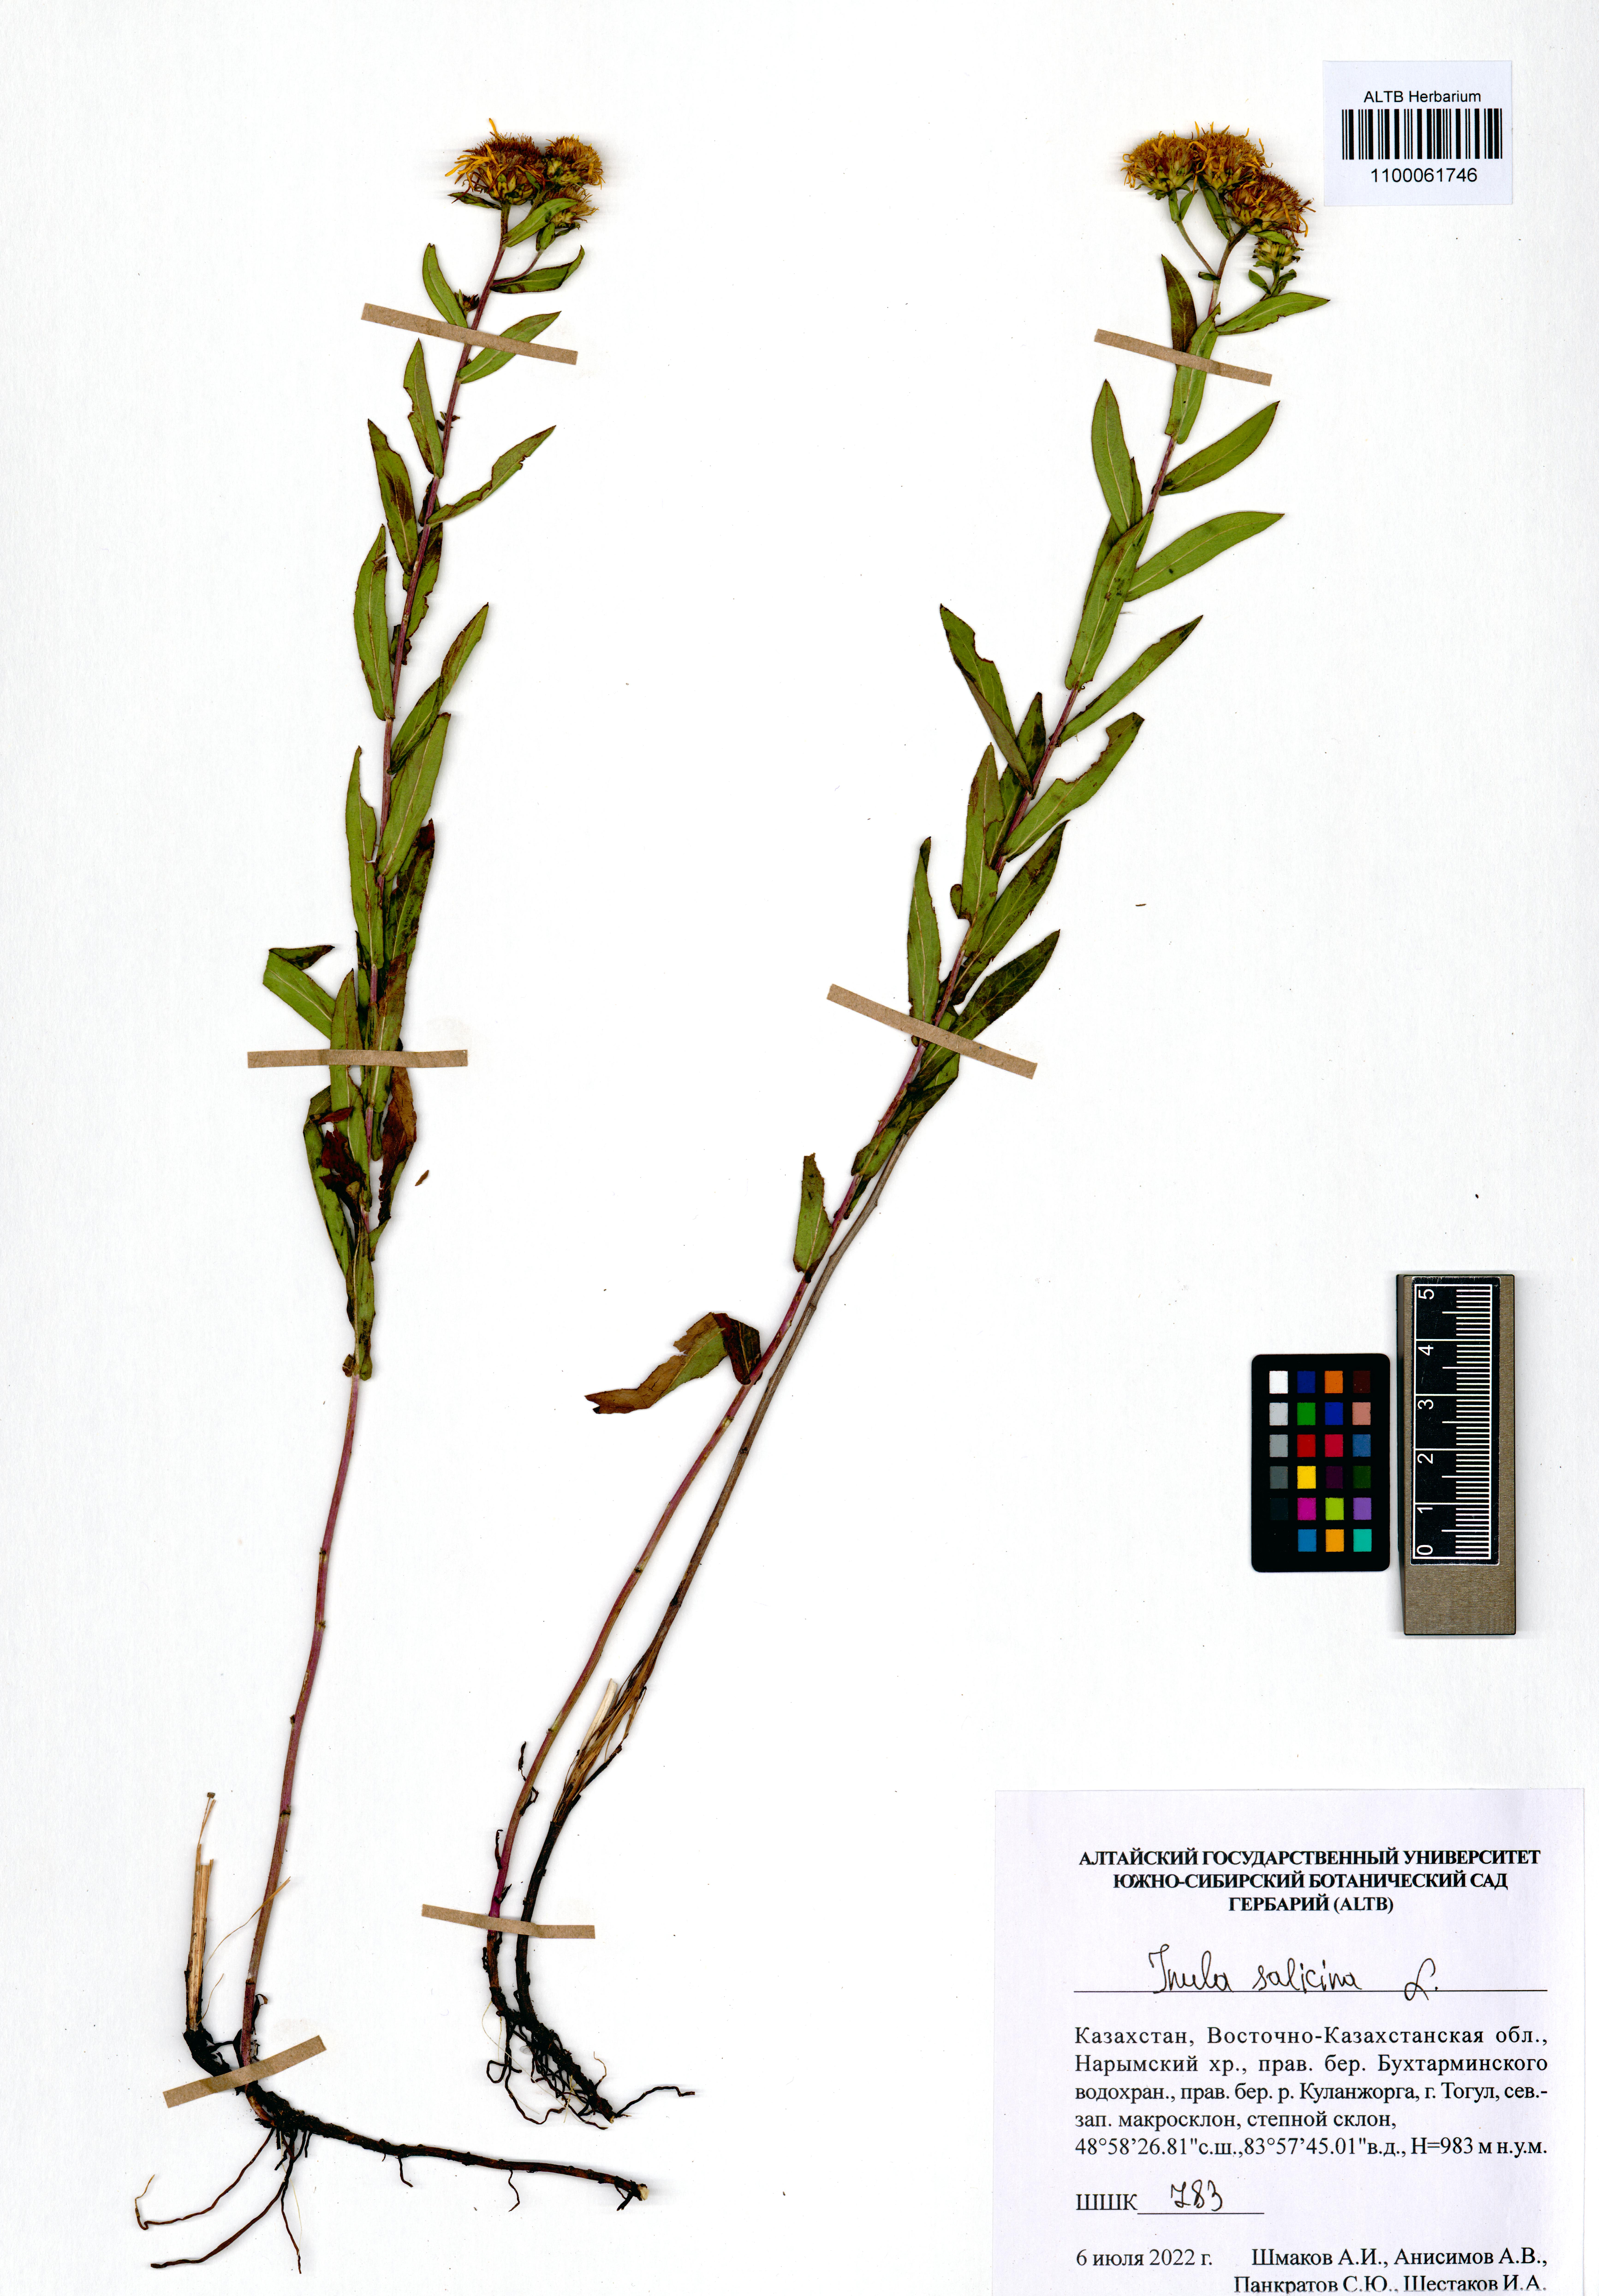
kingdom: Plantae
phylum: Tracheophyta
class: Magnoliopsida
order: Asterales
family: Asteraceae
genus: Pentanema
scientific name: Pentanema salicinum
